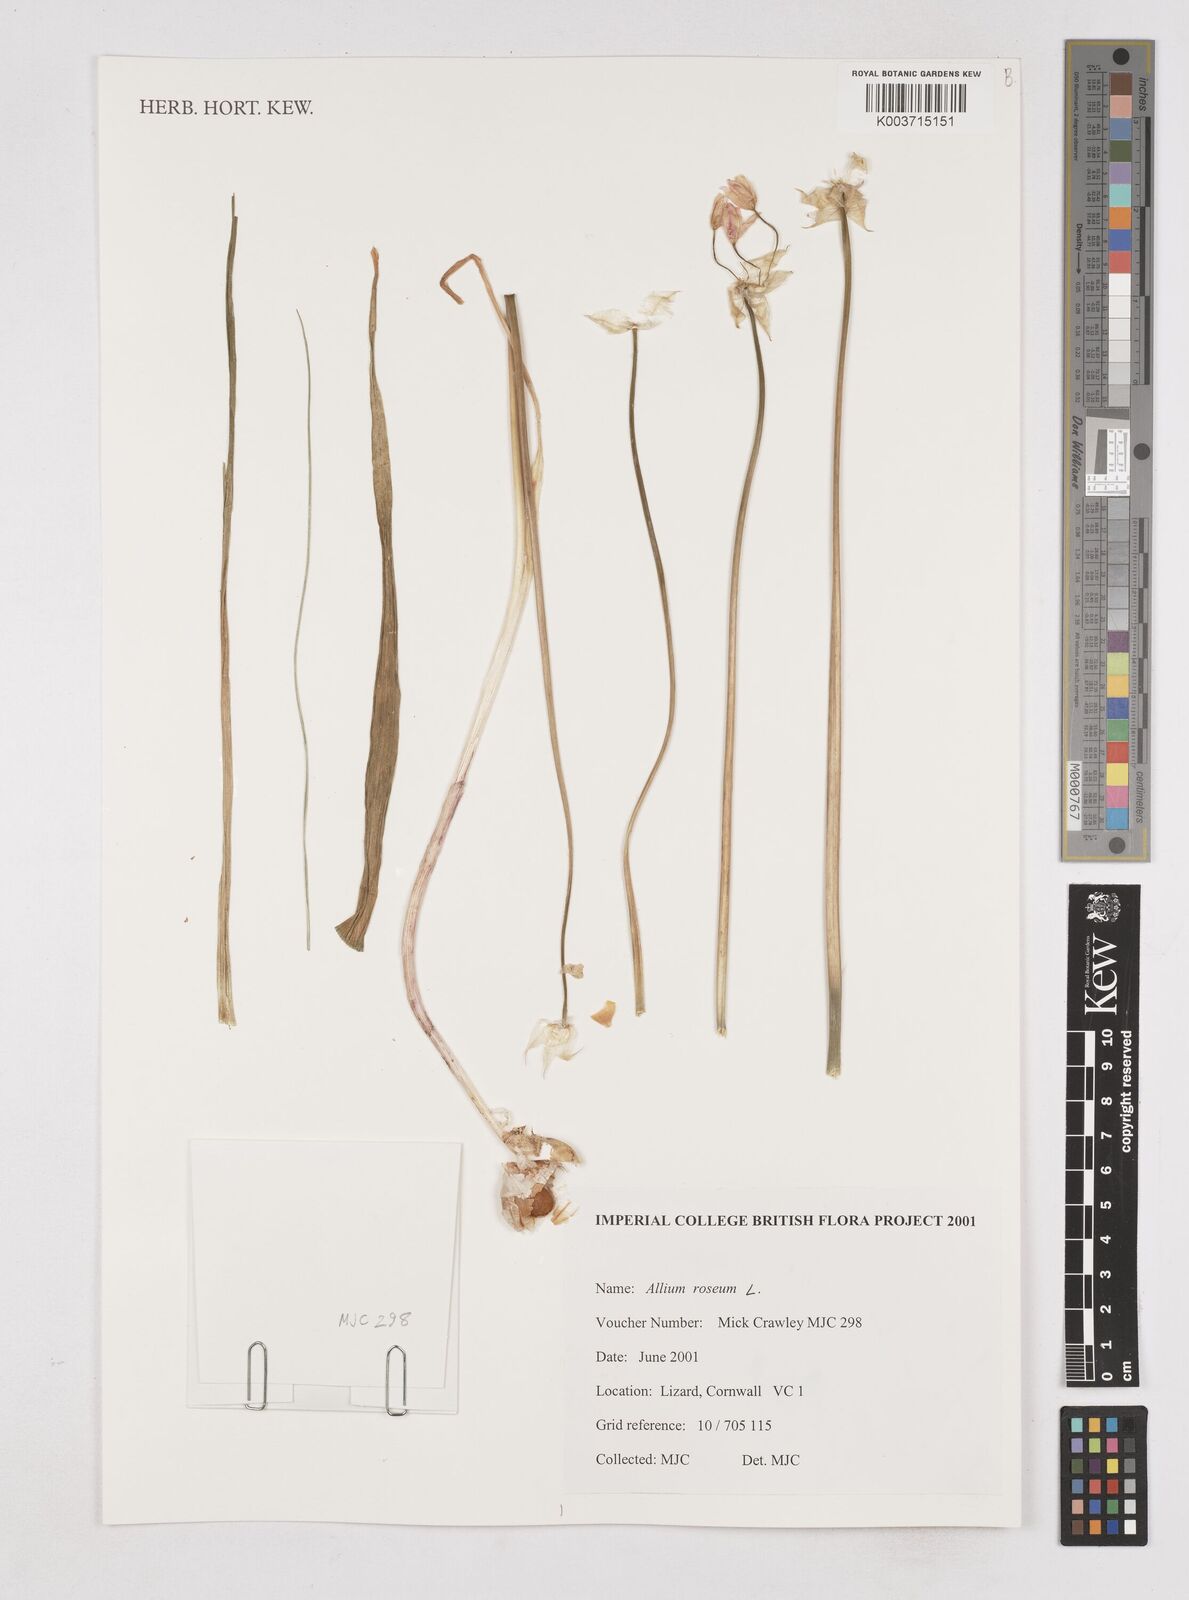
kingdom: Plantae
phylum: Tracheophyta
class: Liliopsida
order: Asparagales
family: Amaryllidaceae
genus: Allium
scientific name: Allium roseum
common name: Rosy garlic
